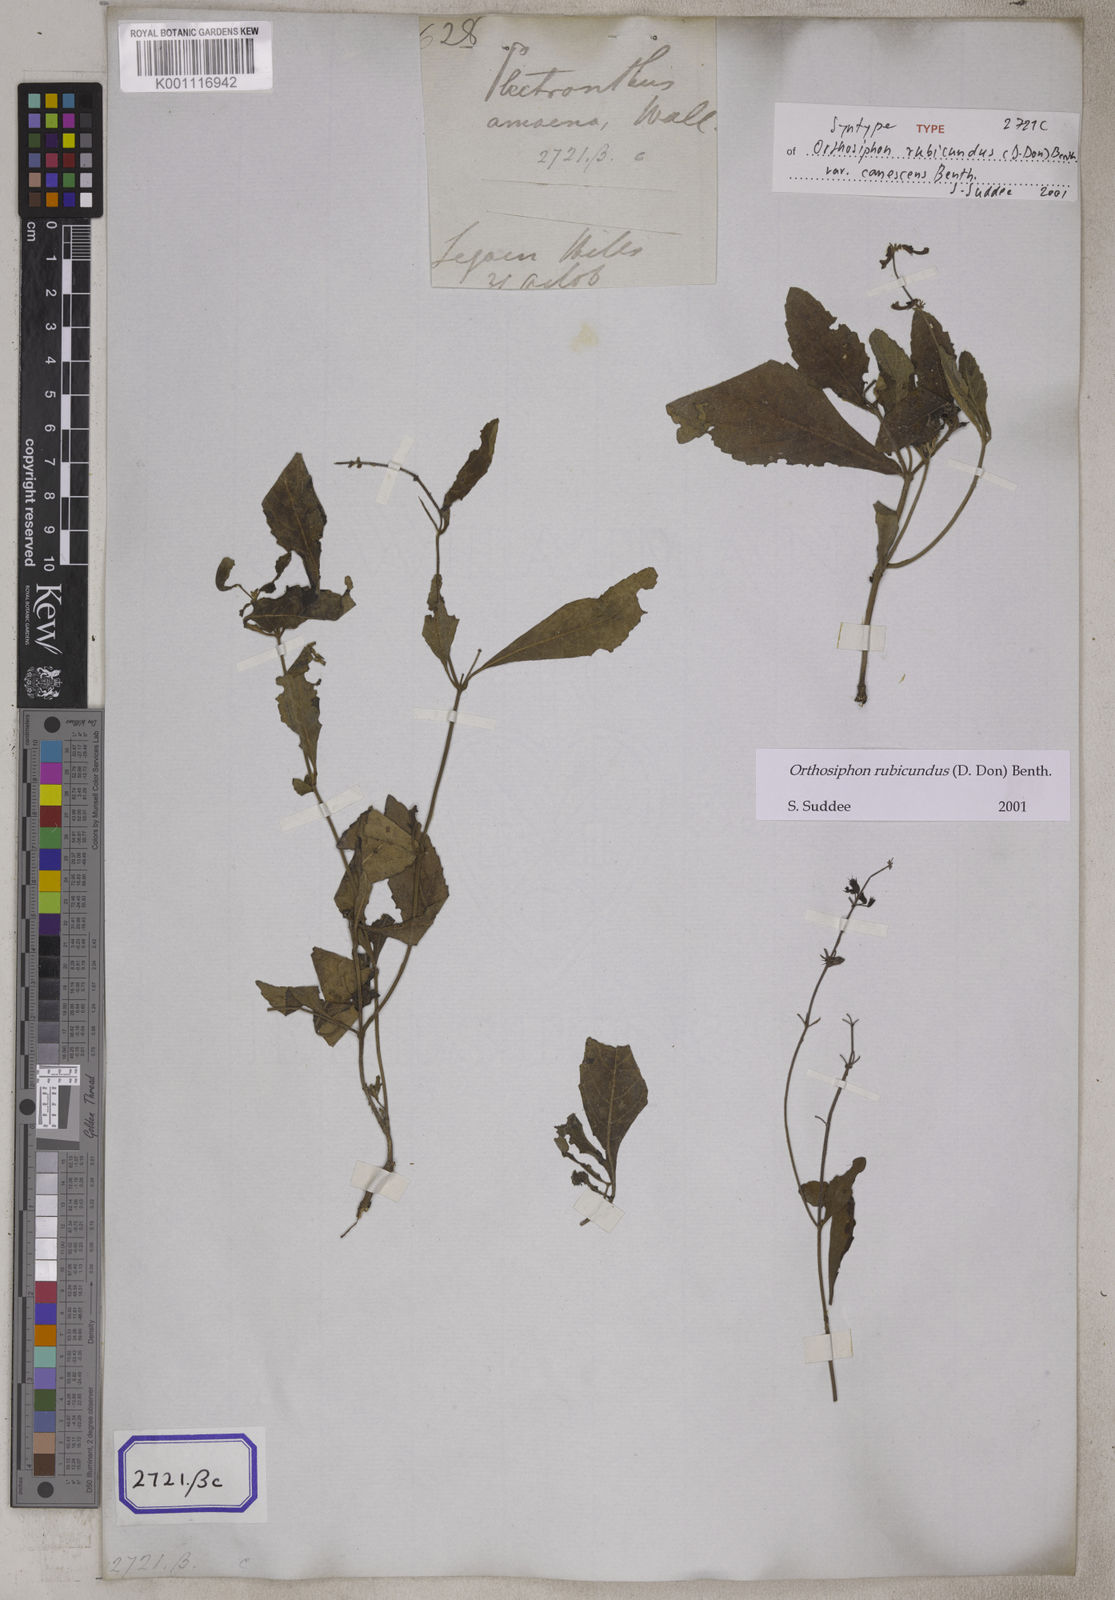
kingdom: Plantae
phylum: Tracheophyta
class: Magnoliopsida
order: Lamiales
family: Lamiaceae
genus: Orthosiphon
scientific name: Orthosiphon
